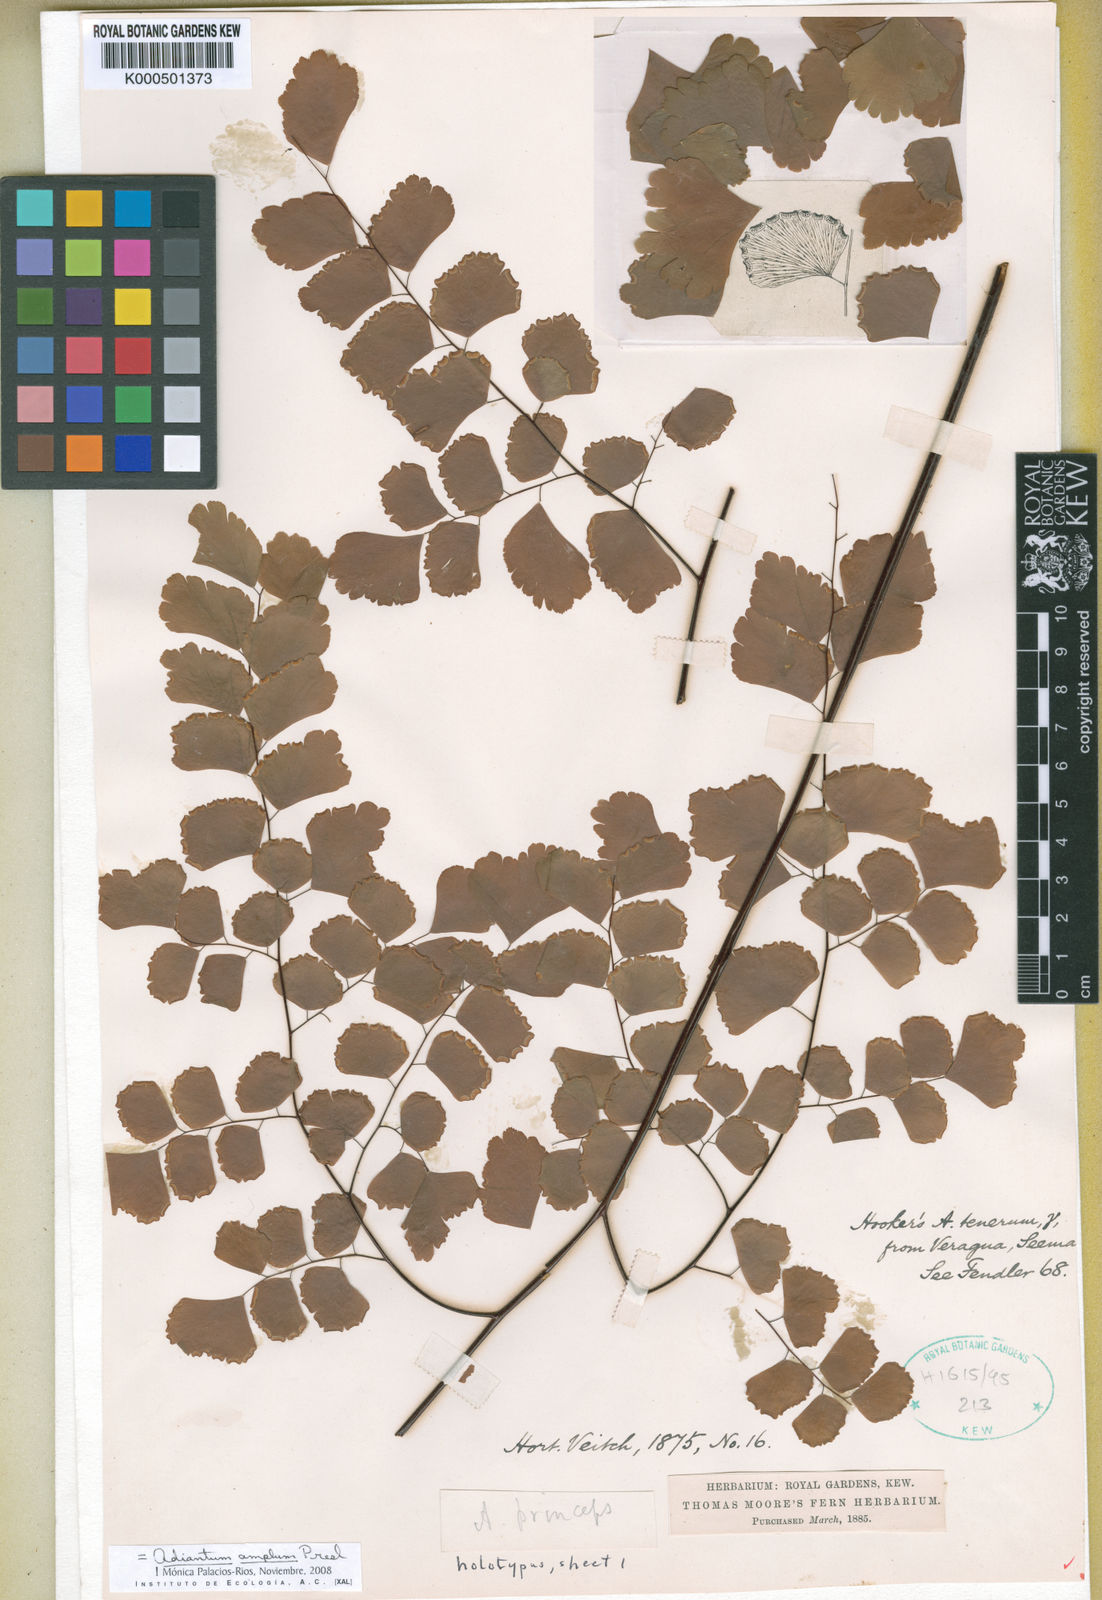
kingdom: Plantae
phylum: Tracheophyta
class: Polypodiopsida
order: Polypodiales
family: Pteridaceae
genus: Adiantum
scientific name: Adiantum amplum
